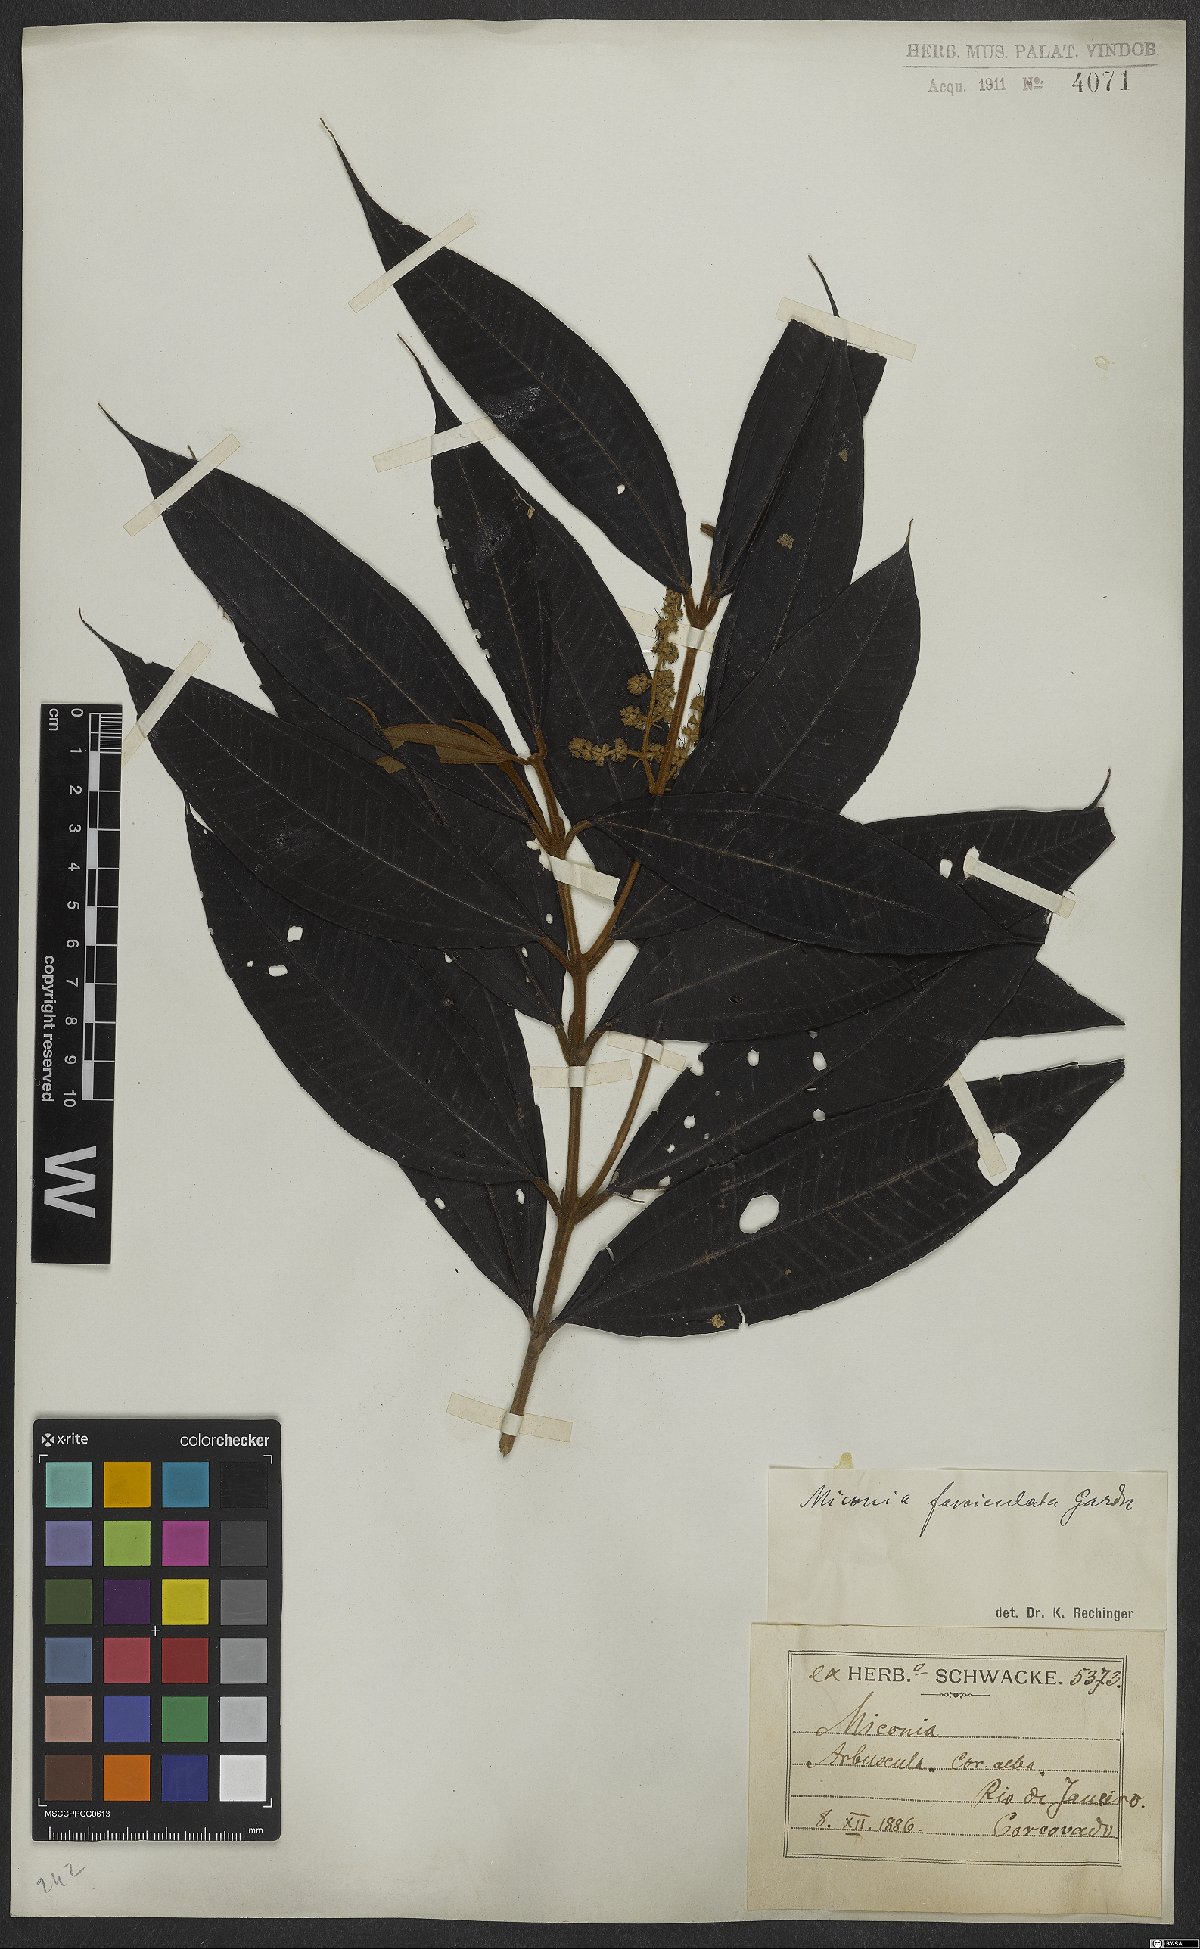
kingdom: Plantae
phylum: Tracheophyta
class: Magnoliopsida
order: Myrtales
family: Melastomataceae
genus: Miconia
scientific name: Miconia fasciculata
